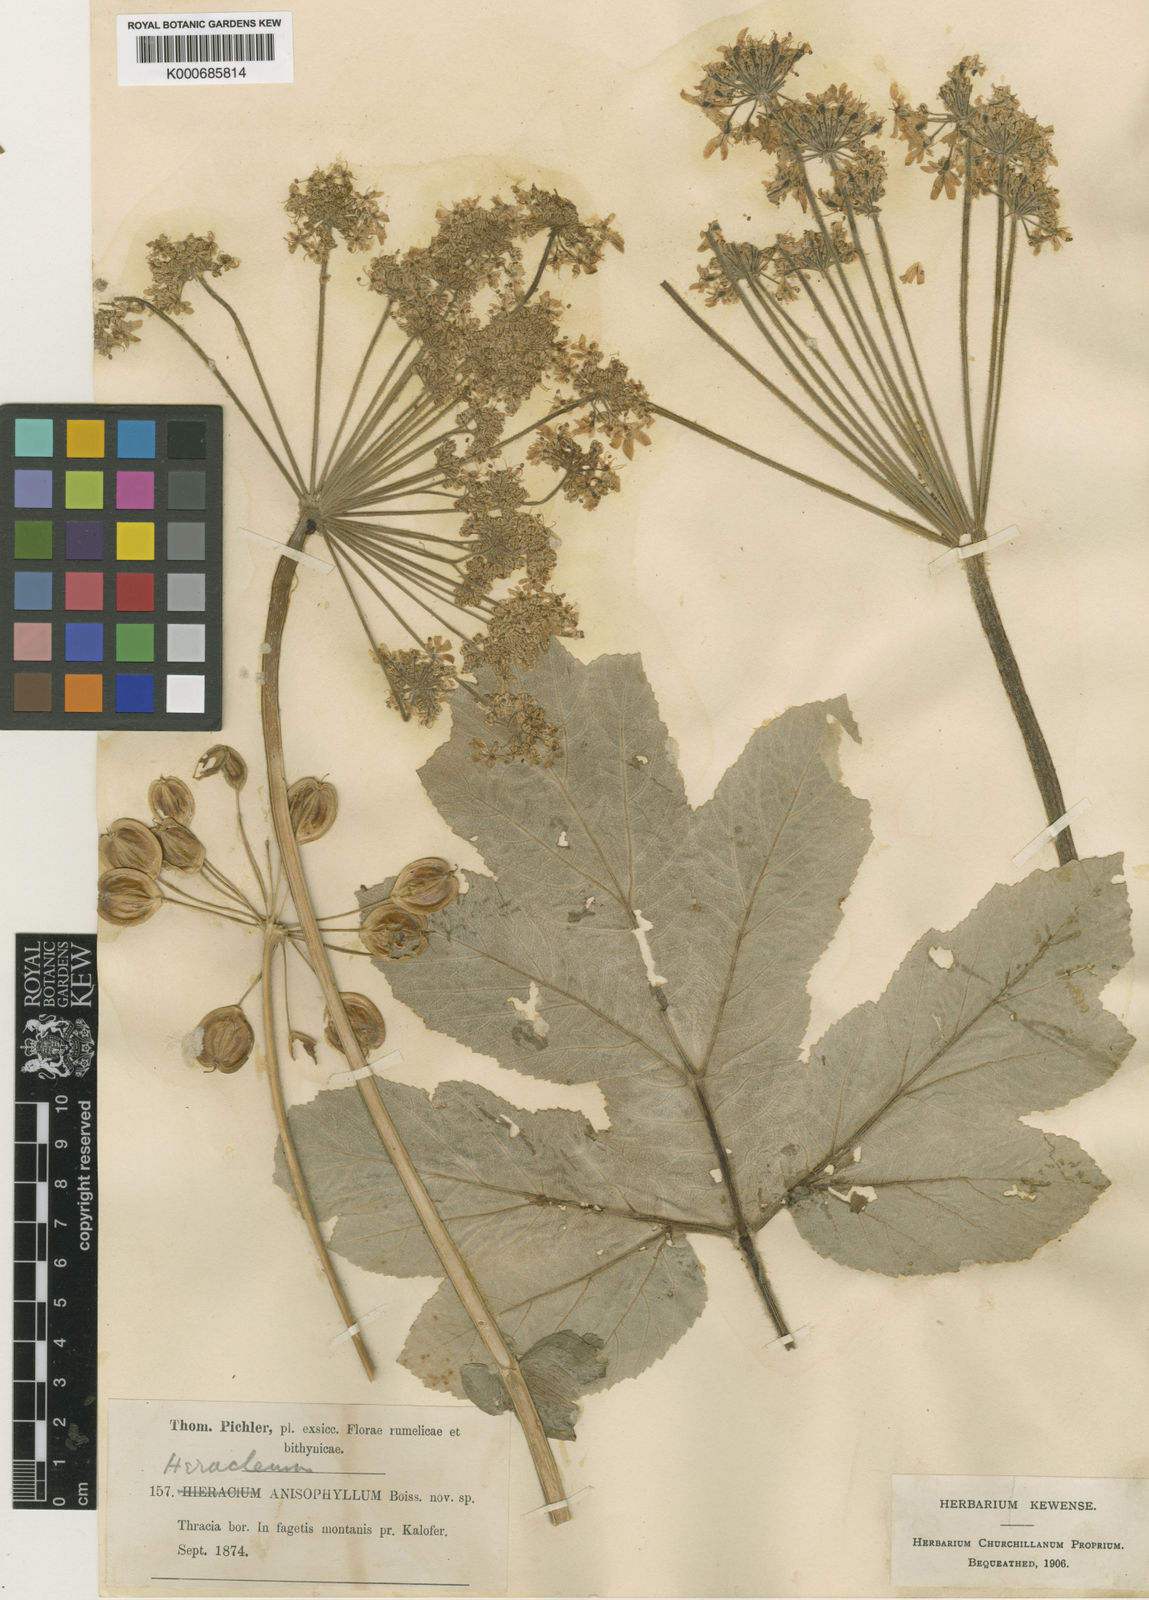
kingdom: Plantae
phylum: Tracheophyta
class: Magnoliopsida
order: Apiales
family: Apiaceae
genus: Heracleum
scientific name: Heracleum
